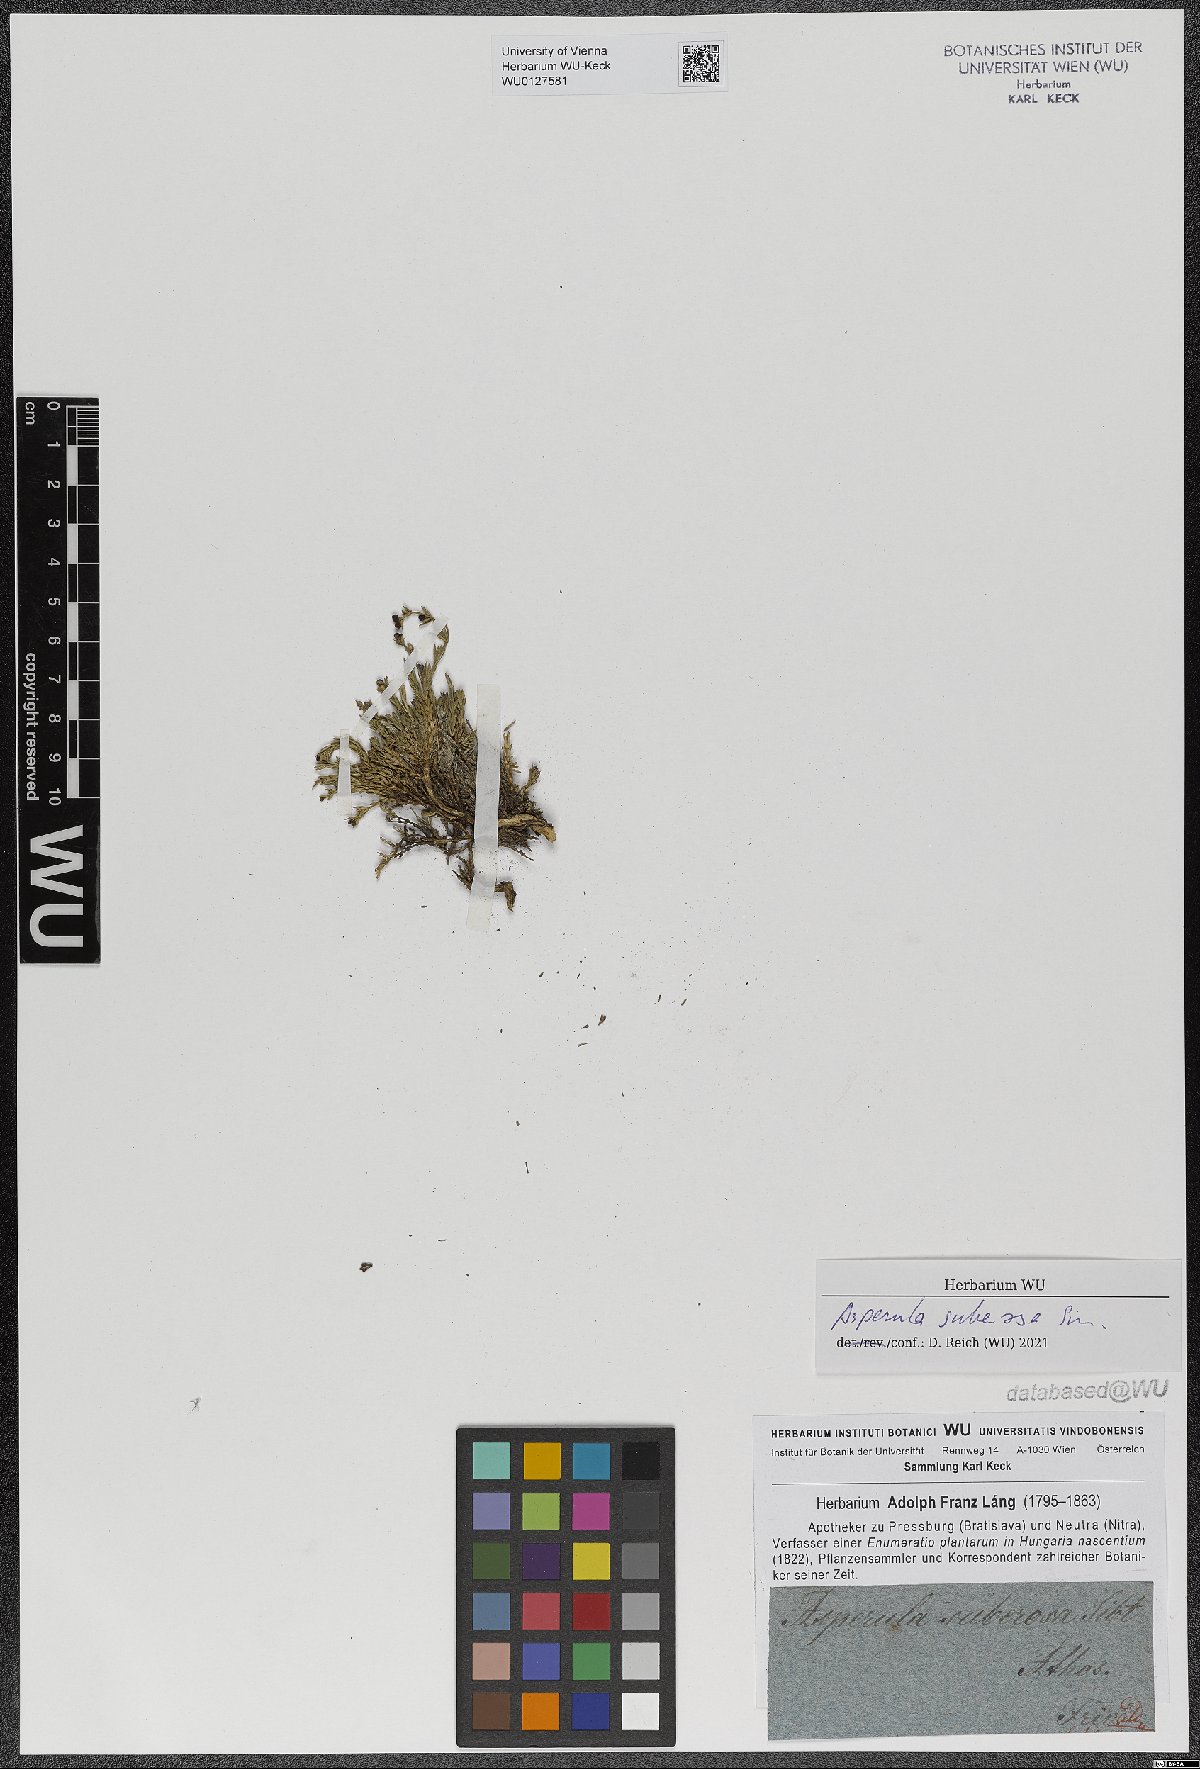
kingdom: Plantae
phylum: Tracheophyta
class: Magnoliopsida
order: Gentianales
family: Rubiaceae
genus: Cynanchica
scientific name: Cynanchica suberosa
